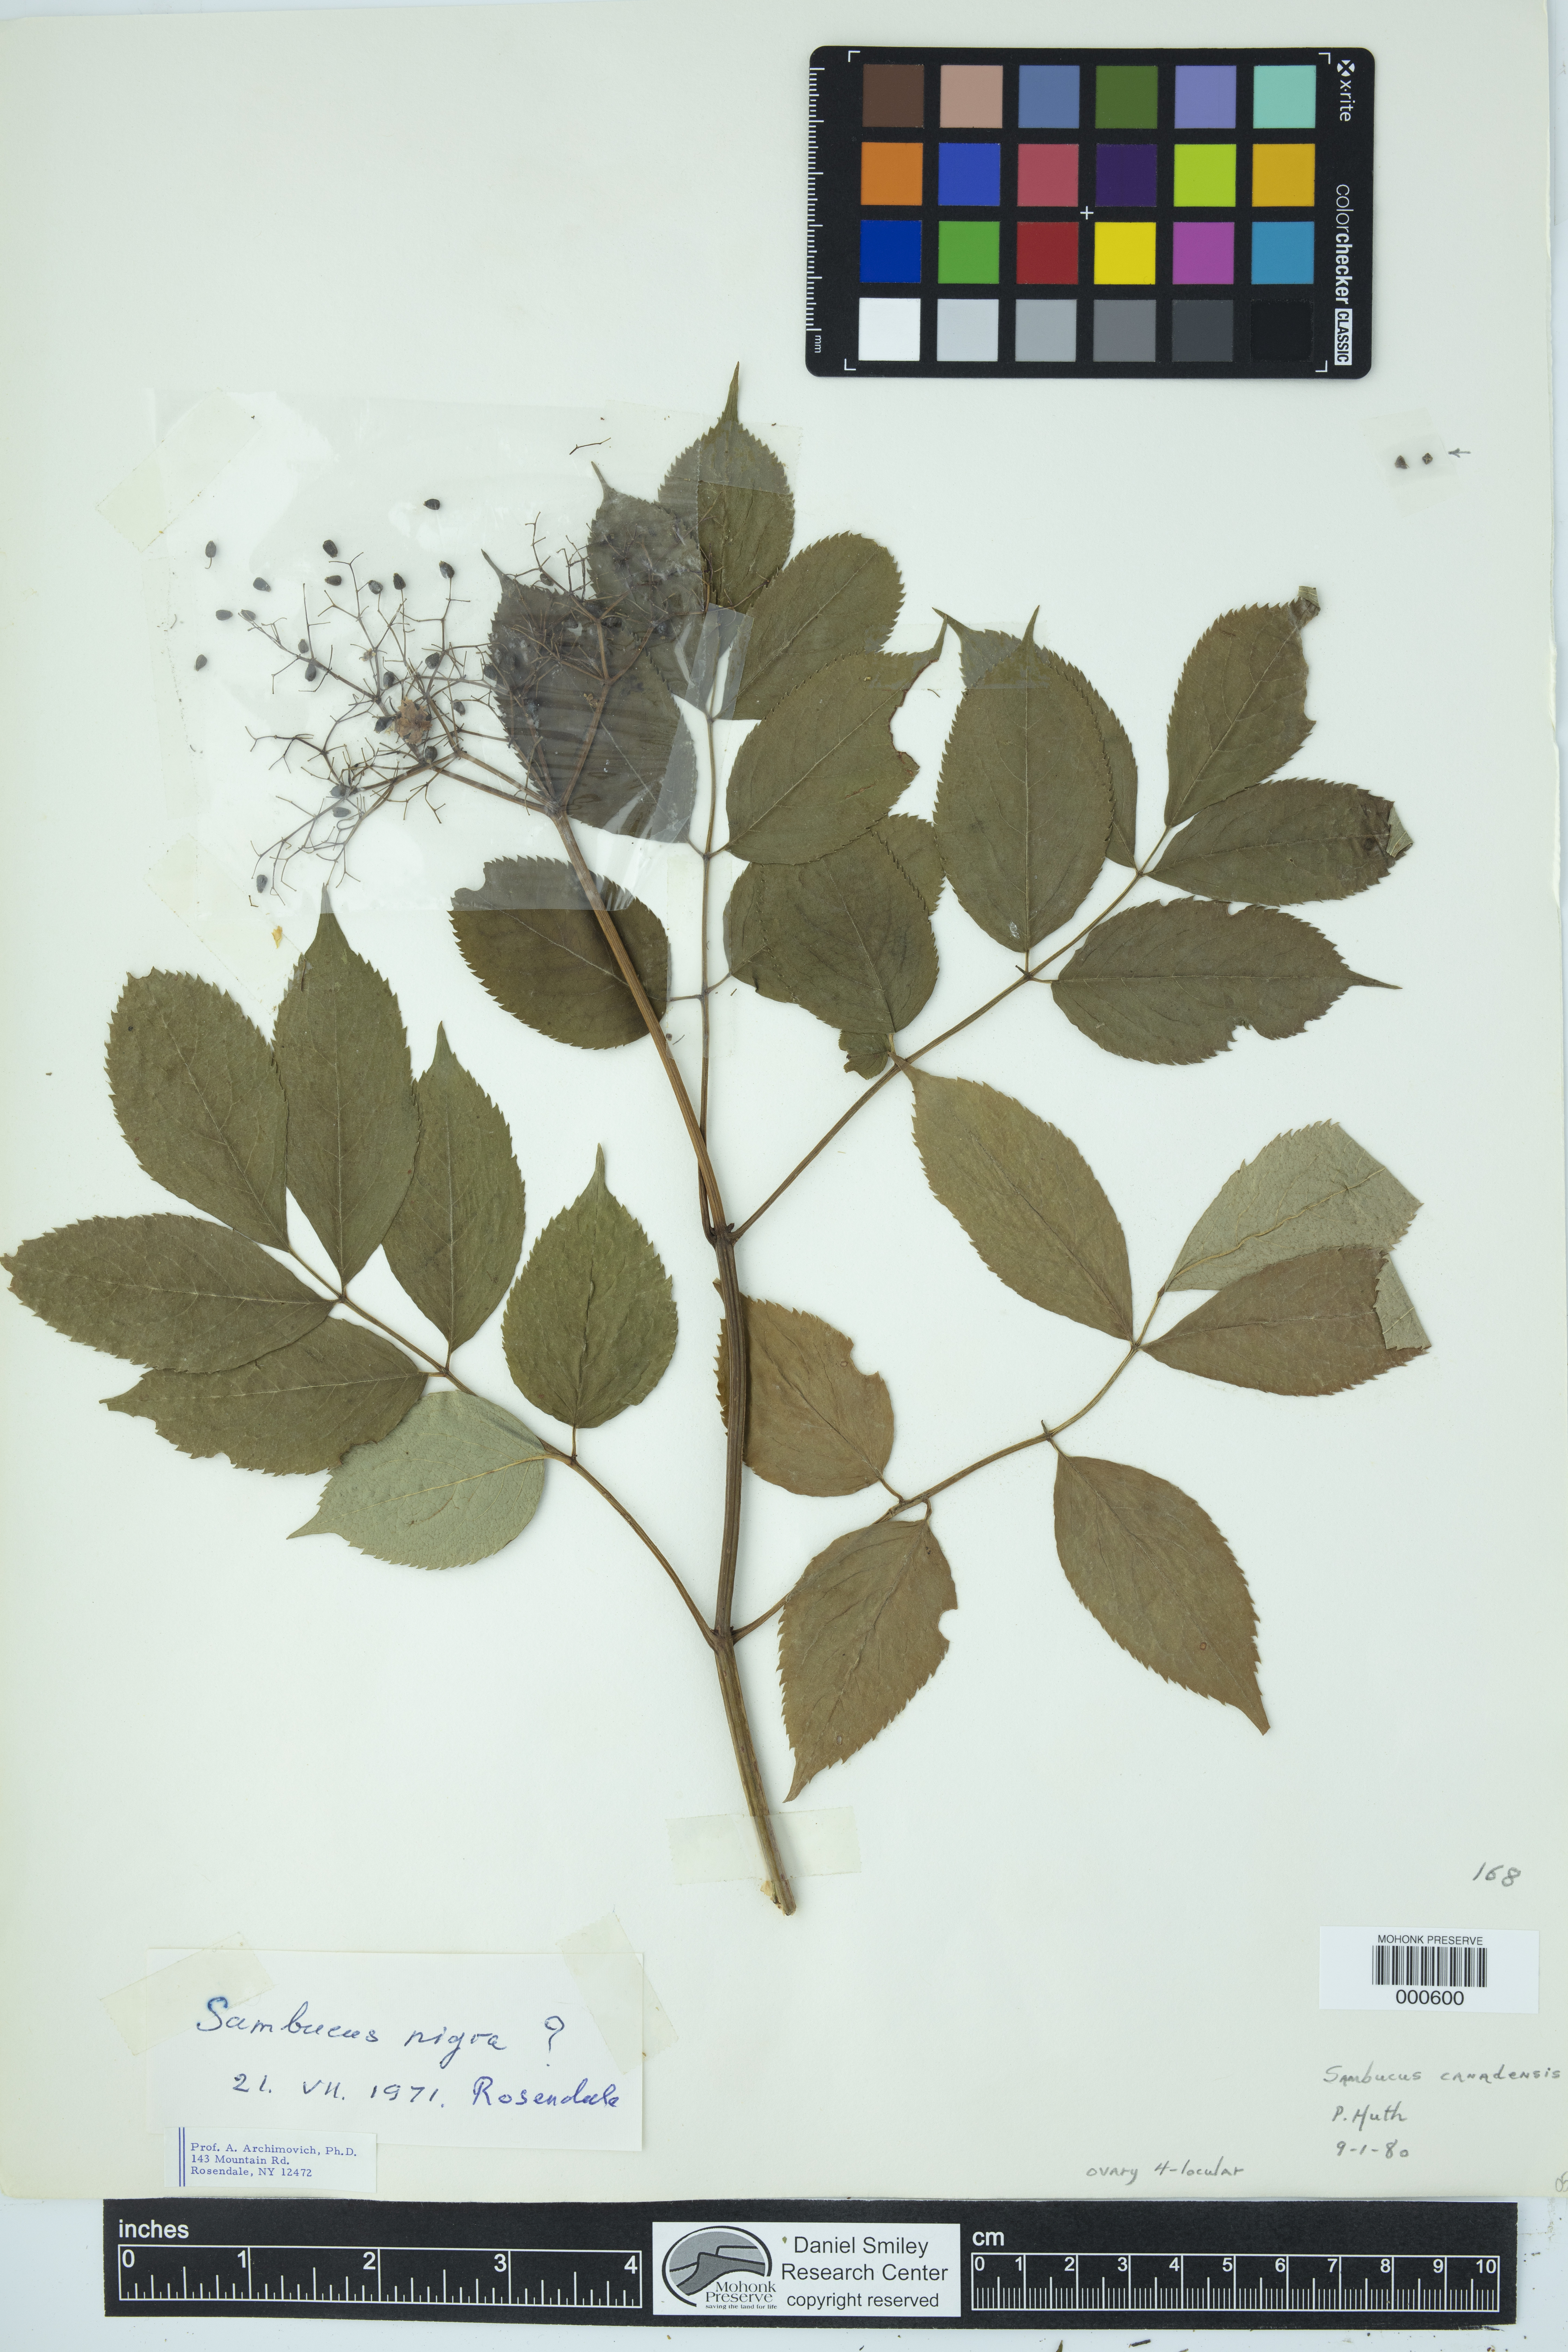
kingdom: Plantae
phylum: Tracheophyta
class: Magnoliopsida
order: Dipsacales
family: Viburnaceae
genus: Sambucus
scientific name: Sambucus canadensis
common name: American elder
